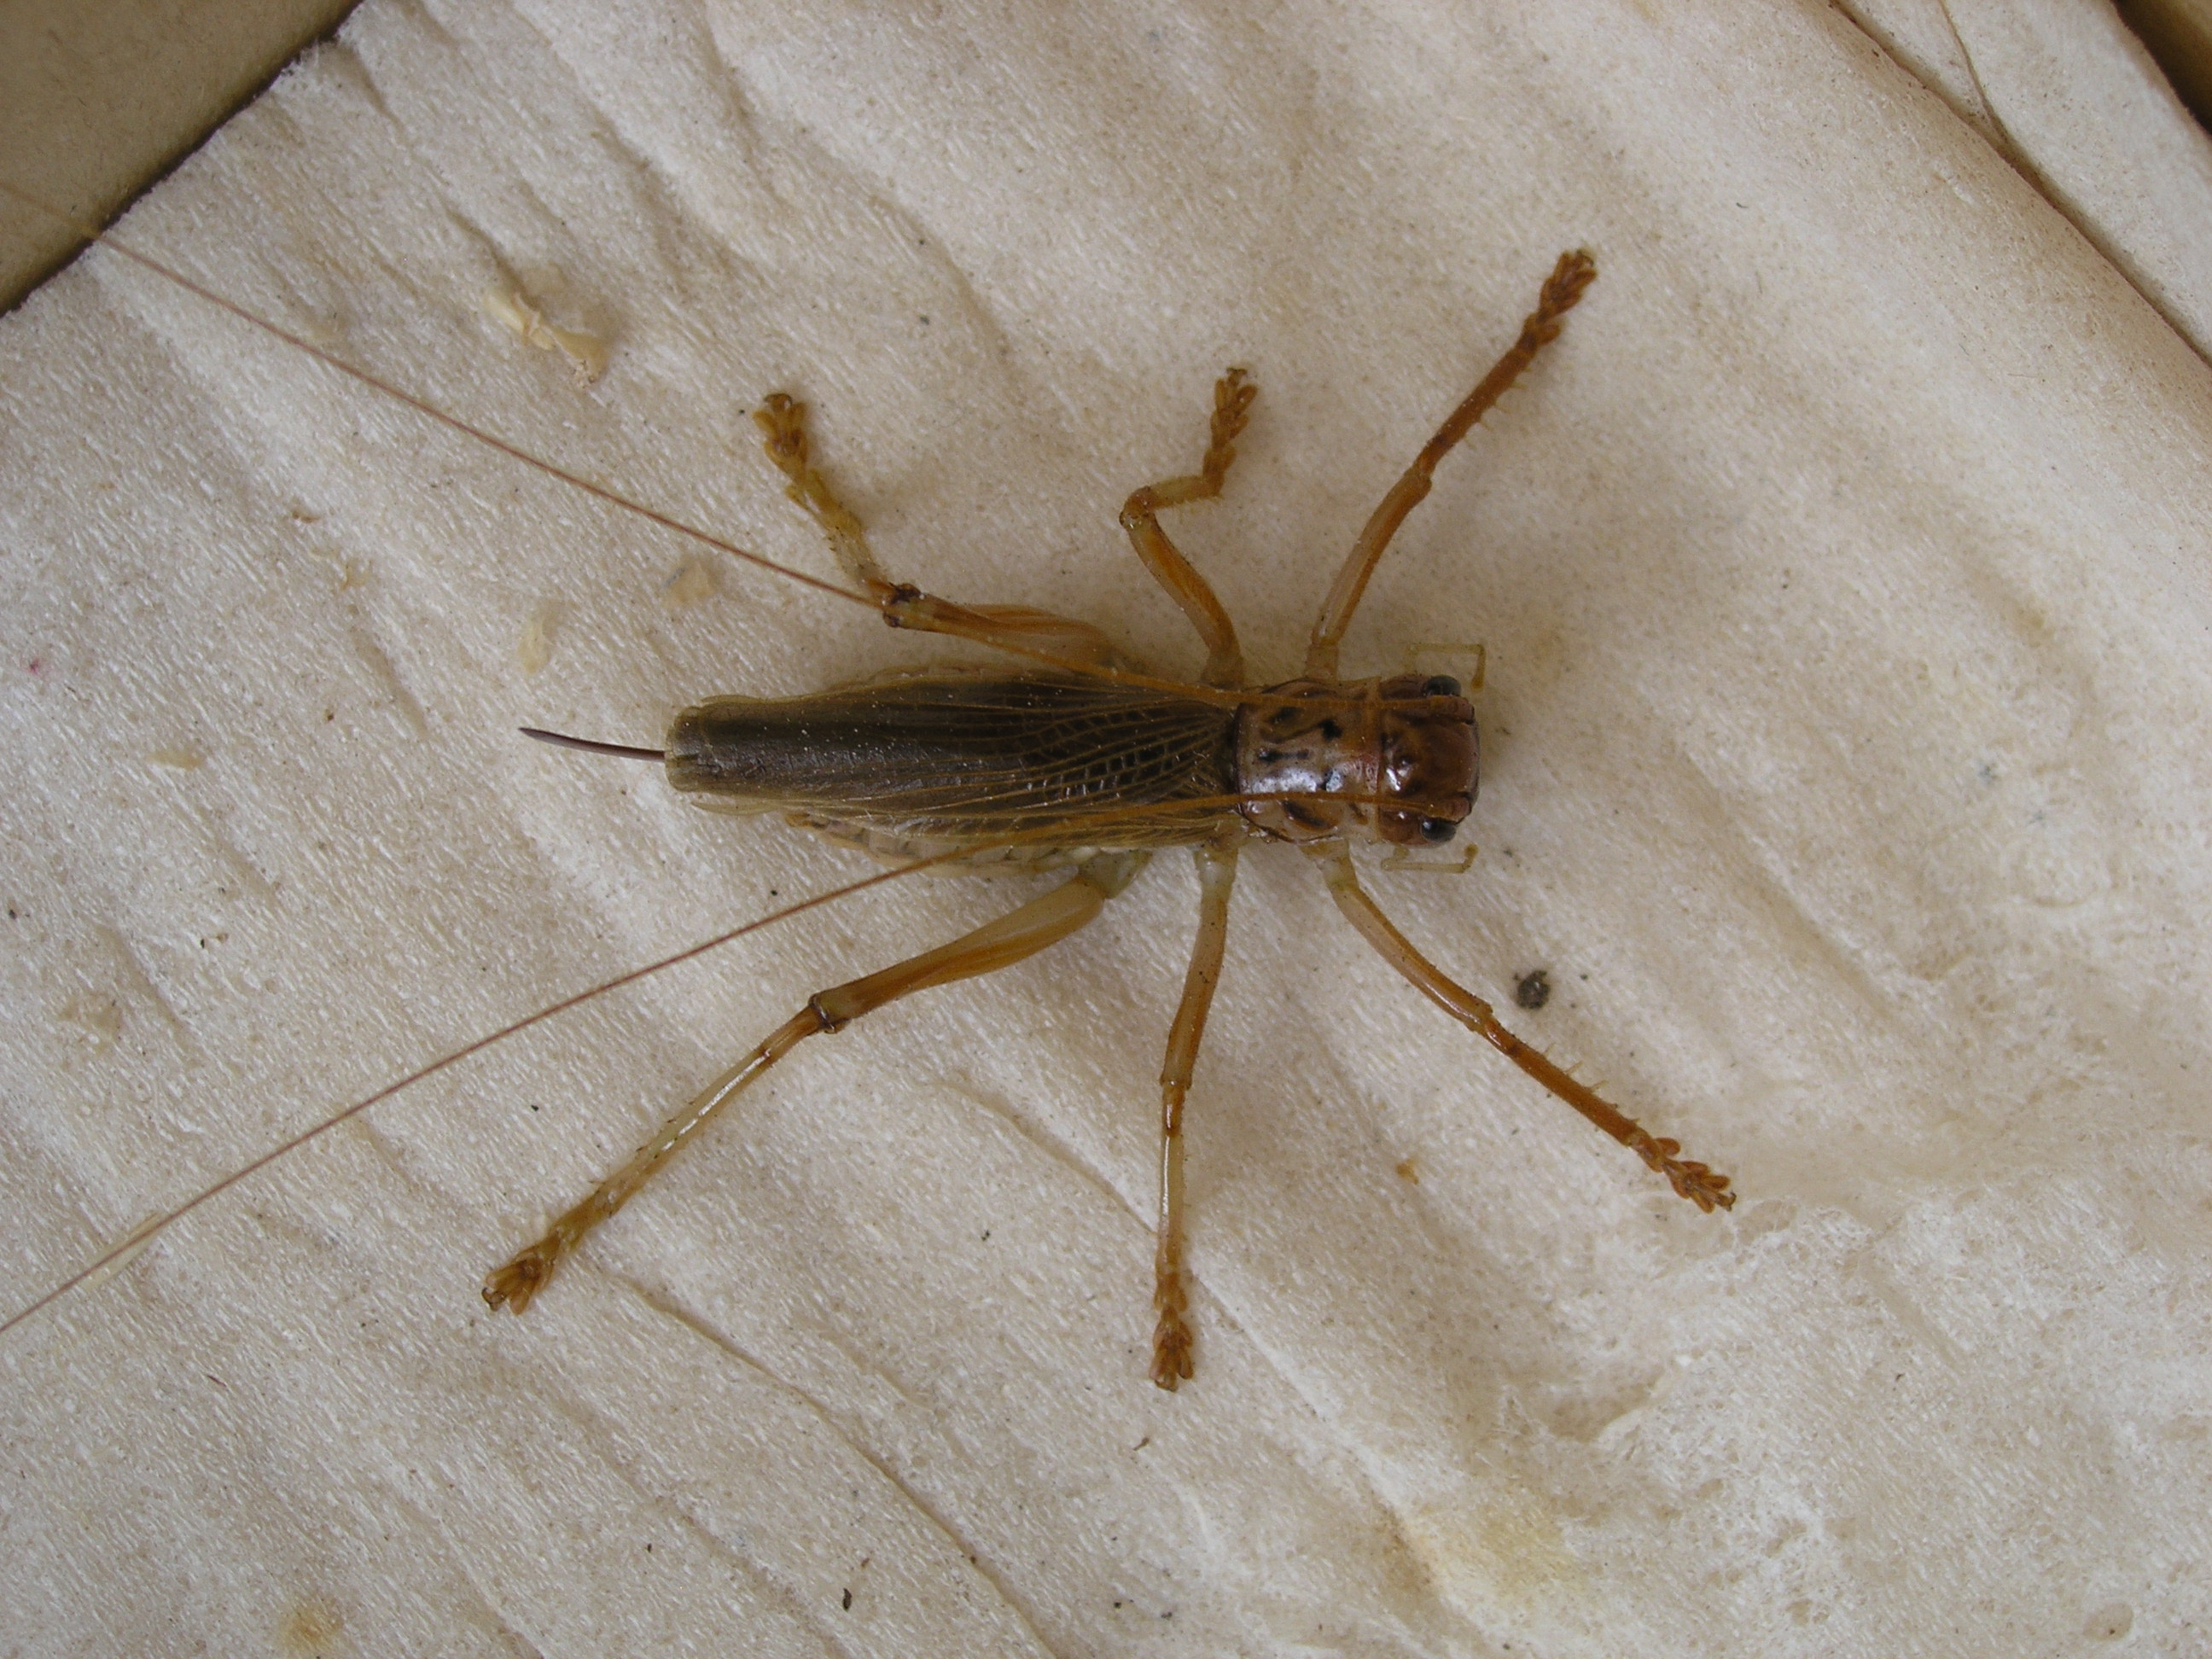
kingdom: Animalia
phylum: Arthropoda
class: Insecta
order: Orthoptera
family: Gryllacrididae
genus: Pterapotrechus
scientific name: Pterapotrechus
